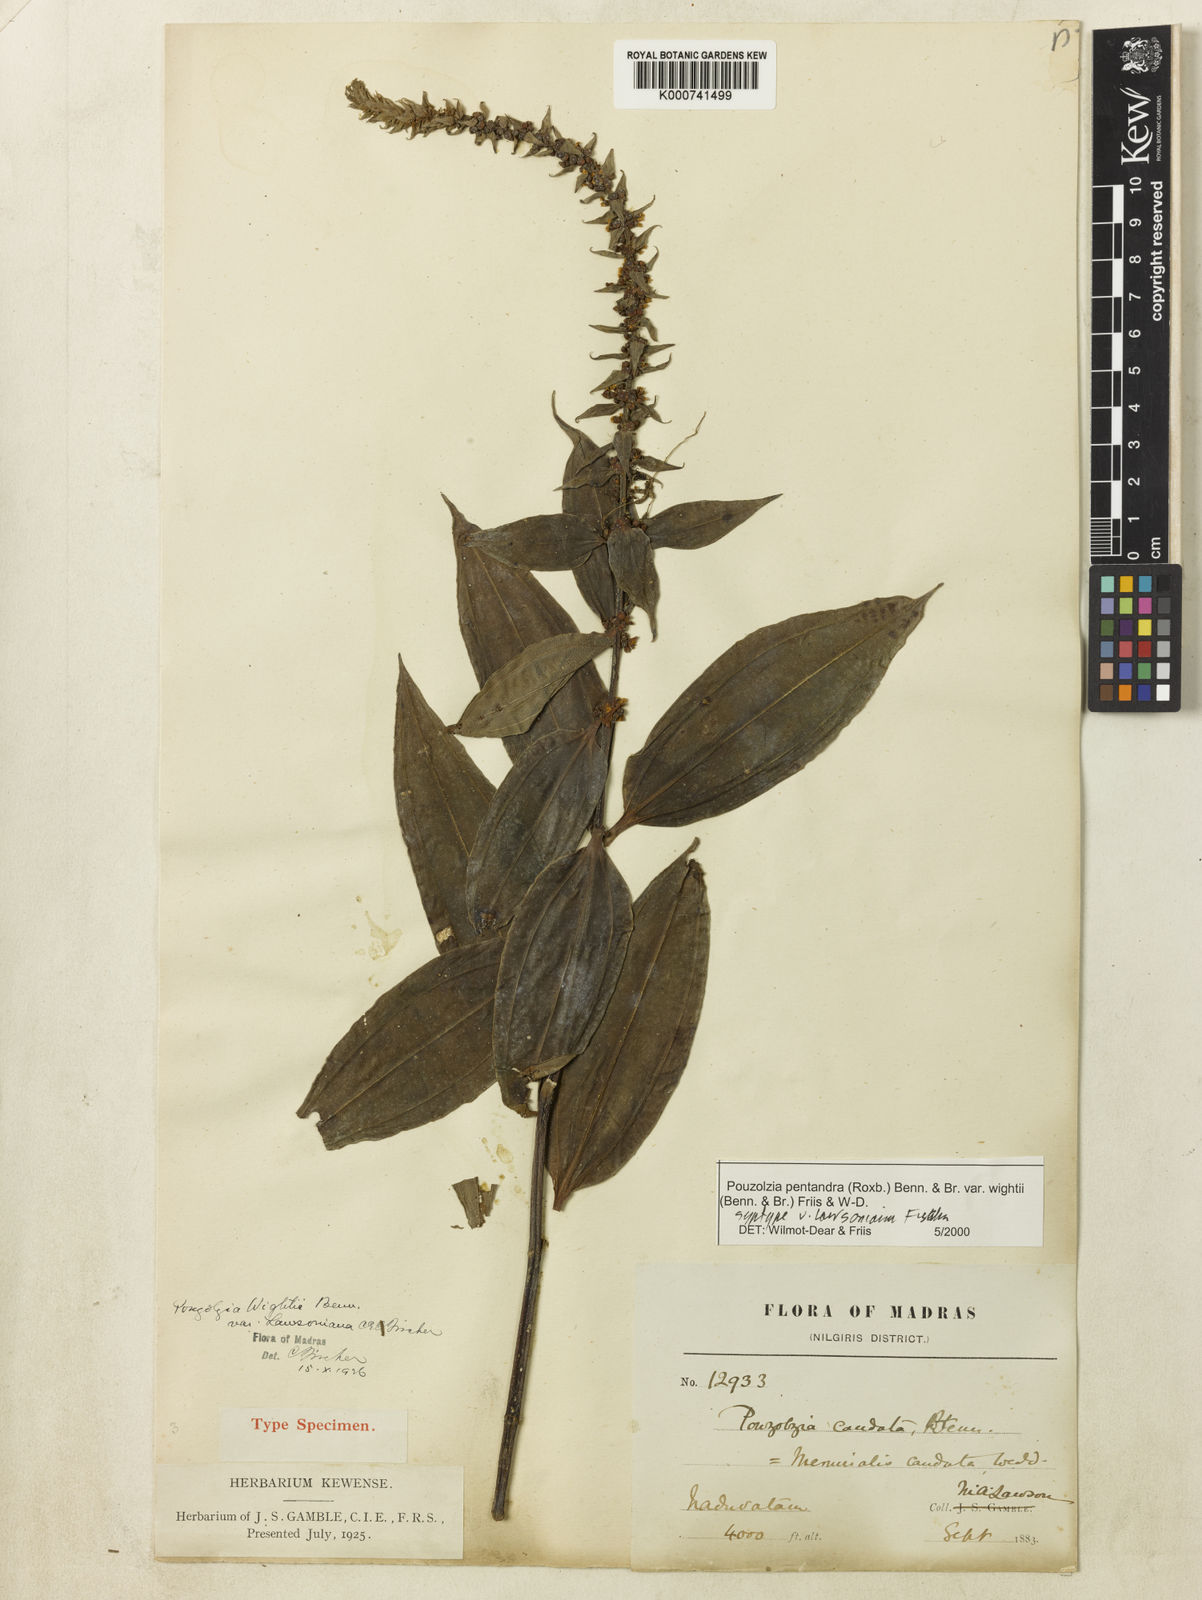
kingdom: Plantae
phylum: Tracheophyta
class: Magnoliopsida
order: Rosales
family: Urticaceae
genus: Gonostegia
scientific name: Gonostegia pentandra
